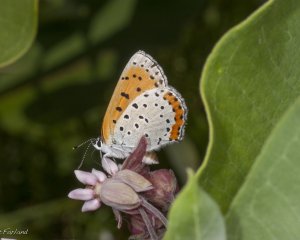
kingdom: Animalia
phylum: Arthropoda
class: Insecta
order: Lepidoptera
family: Sesiidae
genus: Sesia
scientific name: Sesia Lycaena hyllus
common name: Bronze Copper
